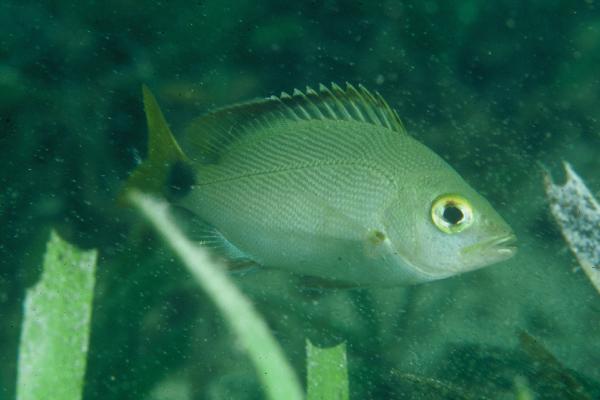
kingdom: Animalia
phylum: Chordata
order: Perciformes
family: Lutjanidae
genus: Lutjanus
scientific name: Lutjanus gibbus
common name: Humpback snapper
